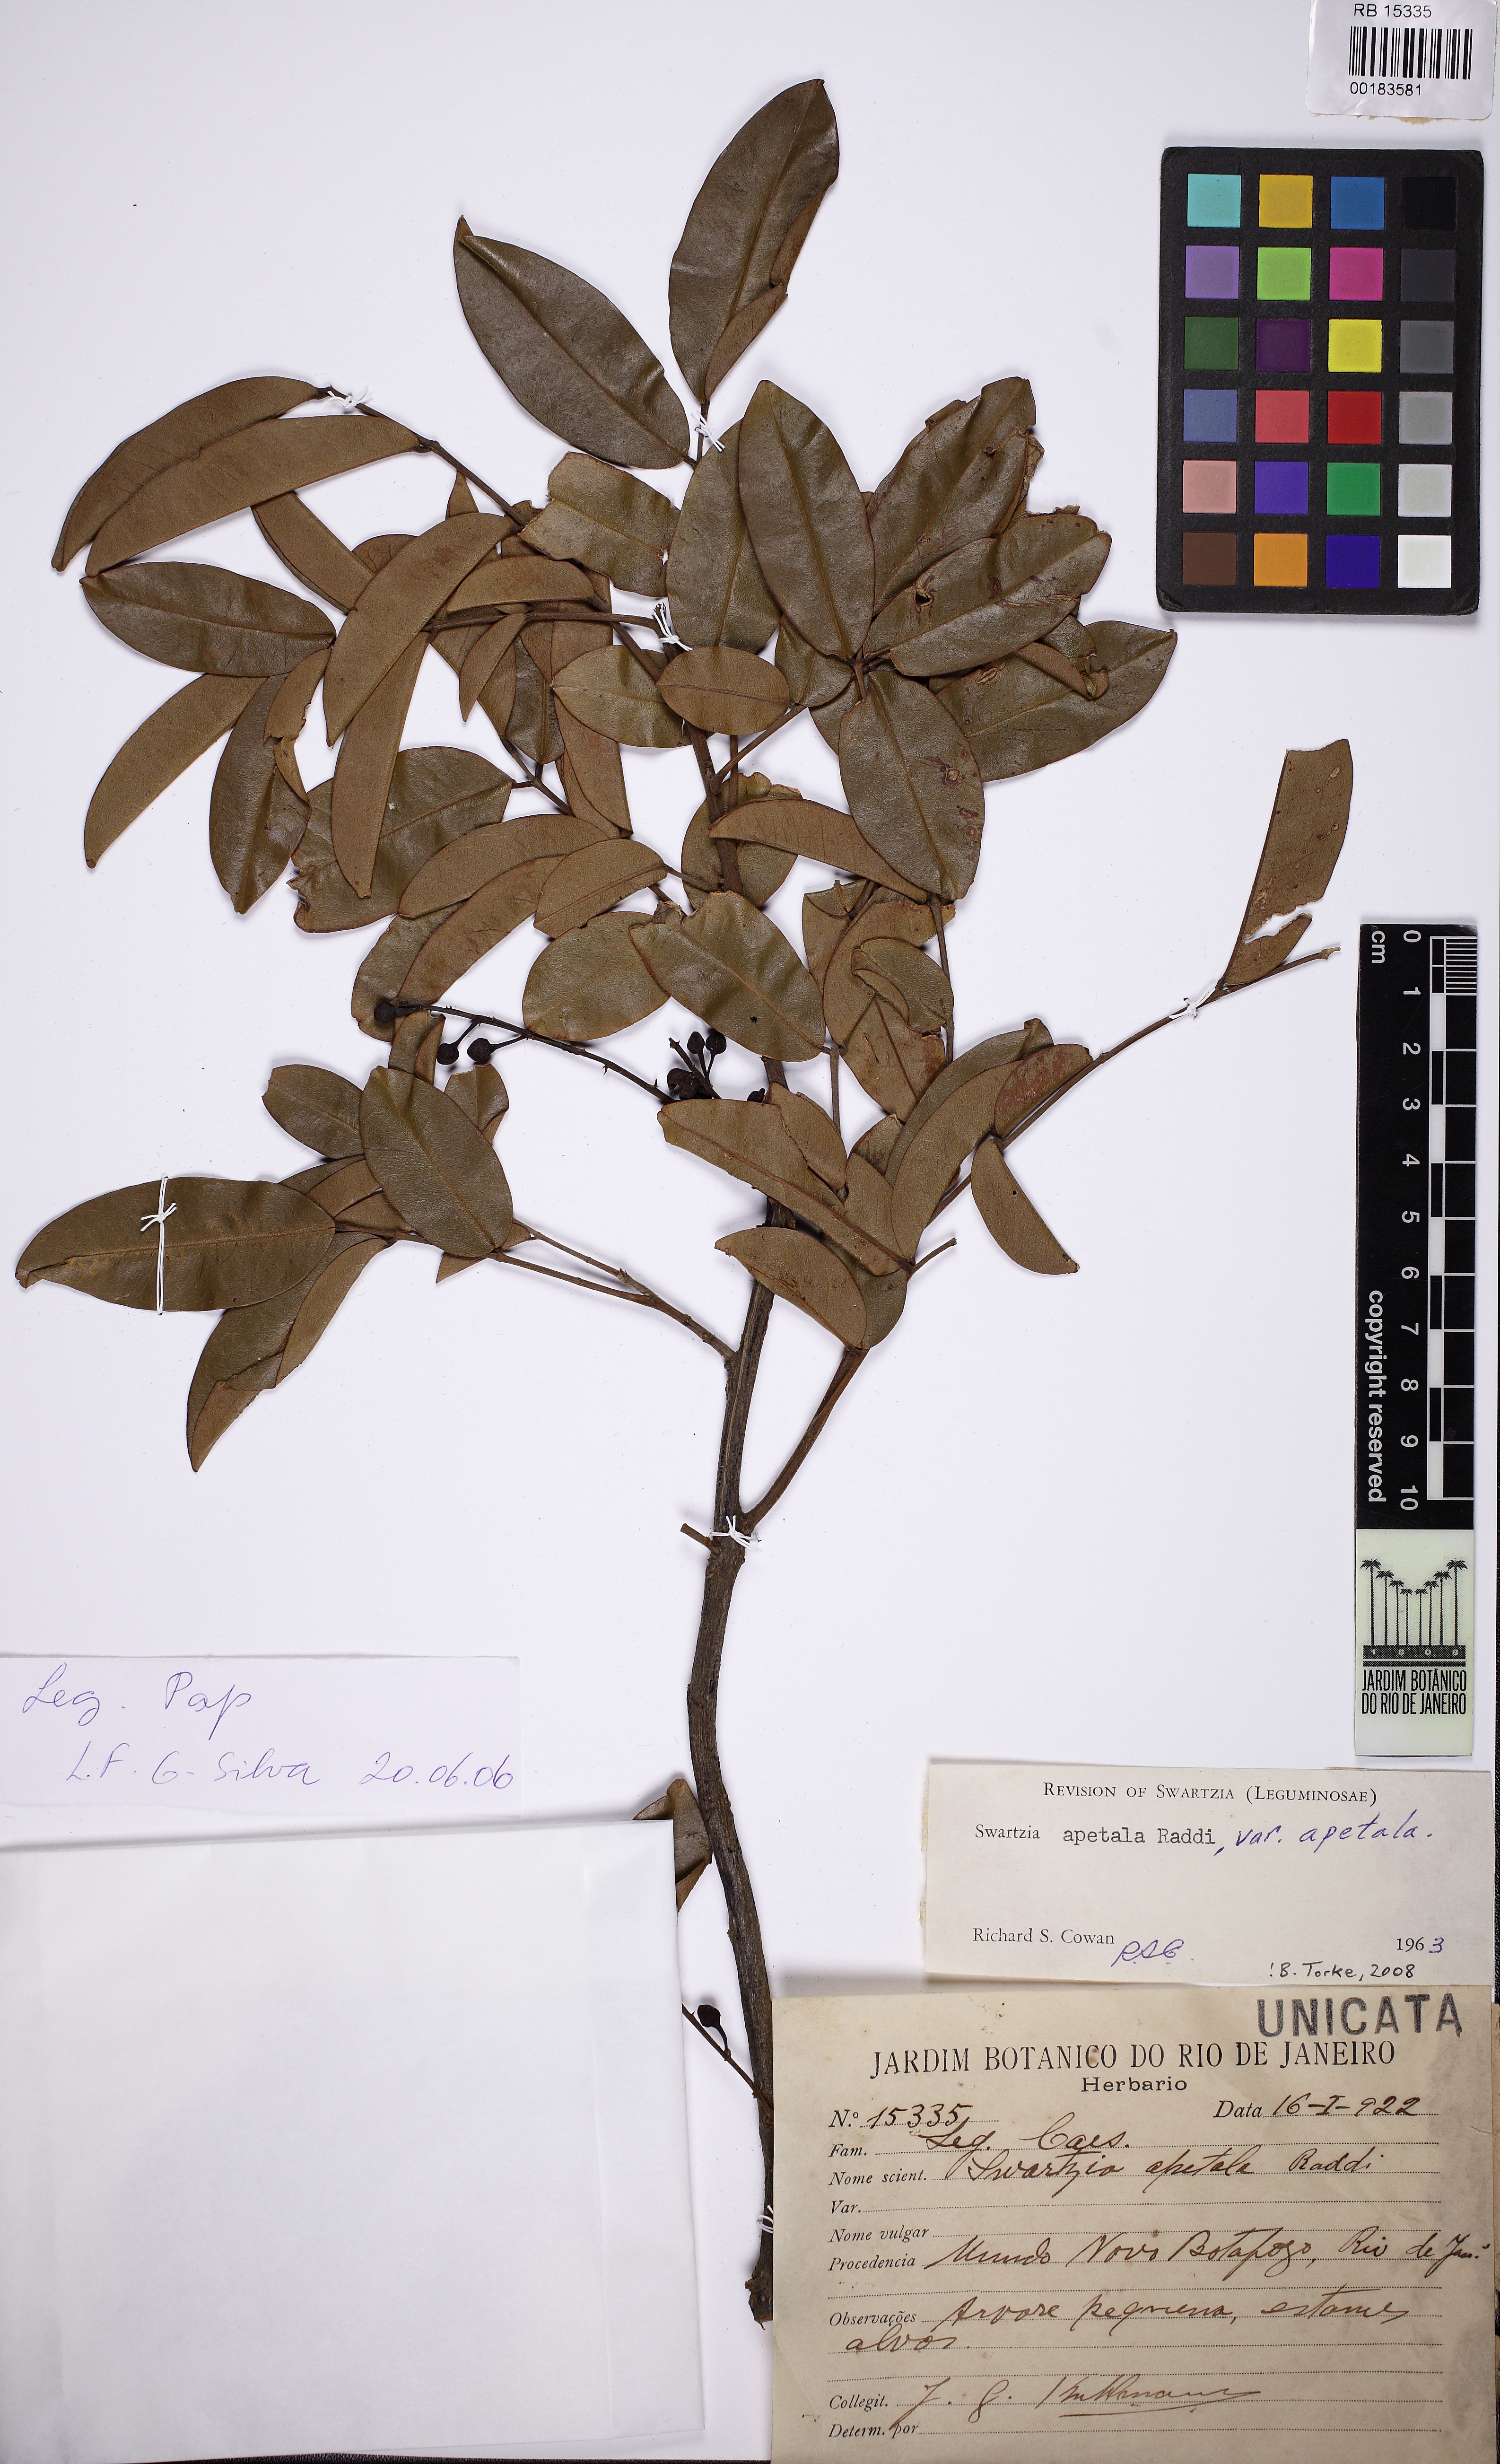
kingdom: Plantae
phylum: Tracheophyta
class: Magnoliopsida
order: Fabales
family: Fabaceae
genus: Swartzia
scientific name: Swartzia apetala
